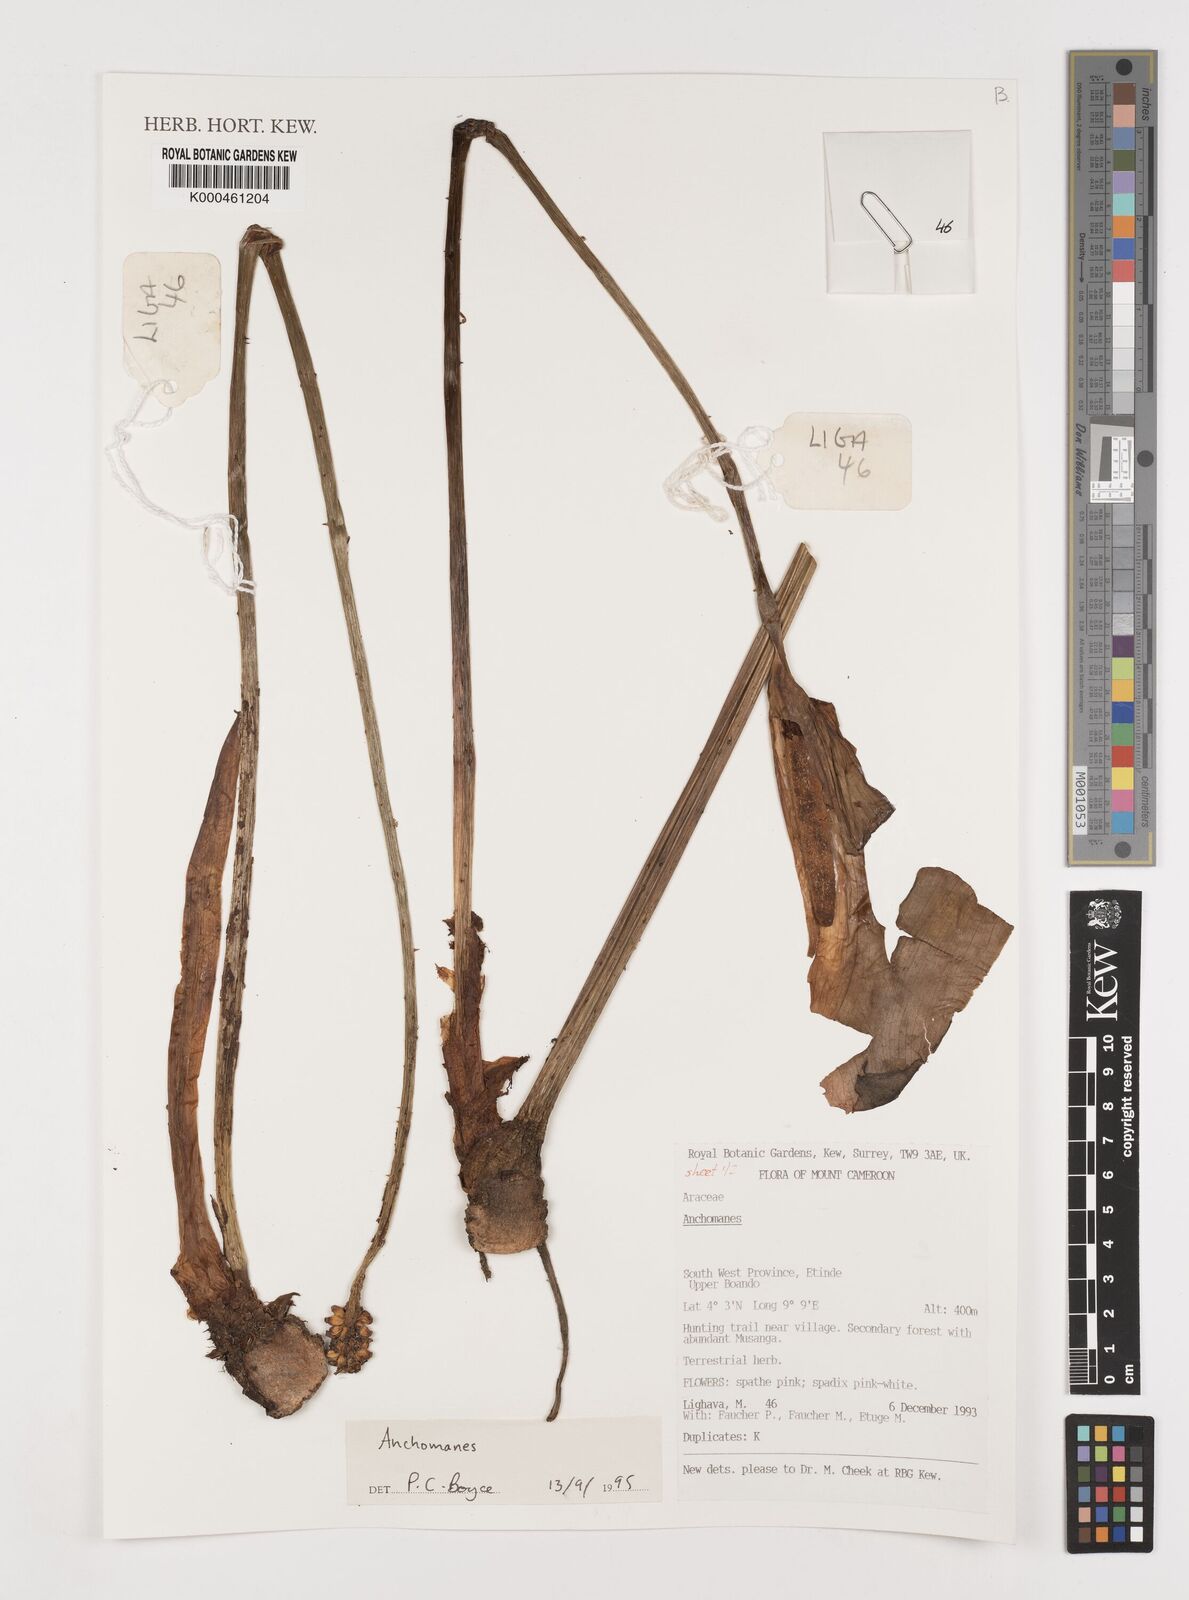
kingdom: Plantae
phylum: Tracheophyta
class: Liliopsida
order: Alismatales
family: Araceae
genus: Anchomanes
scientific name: Anchomanes
